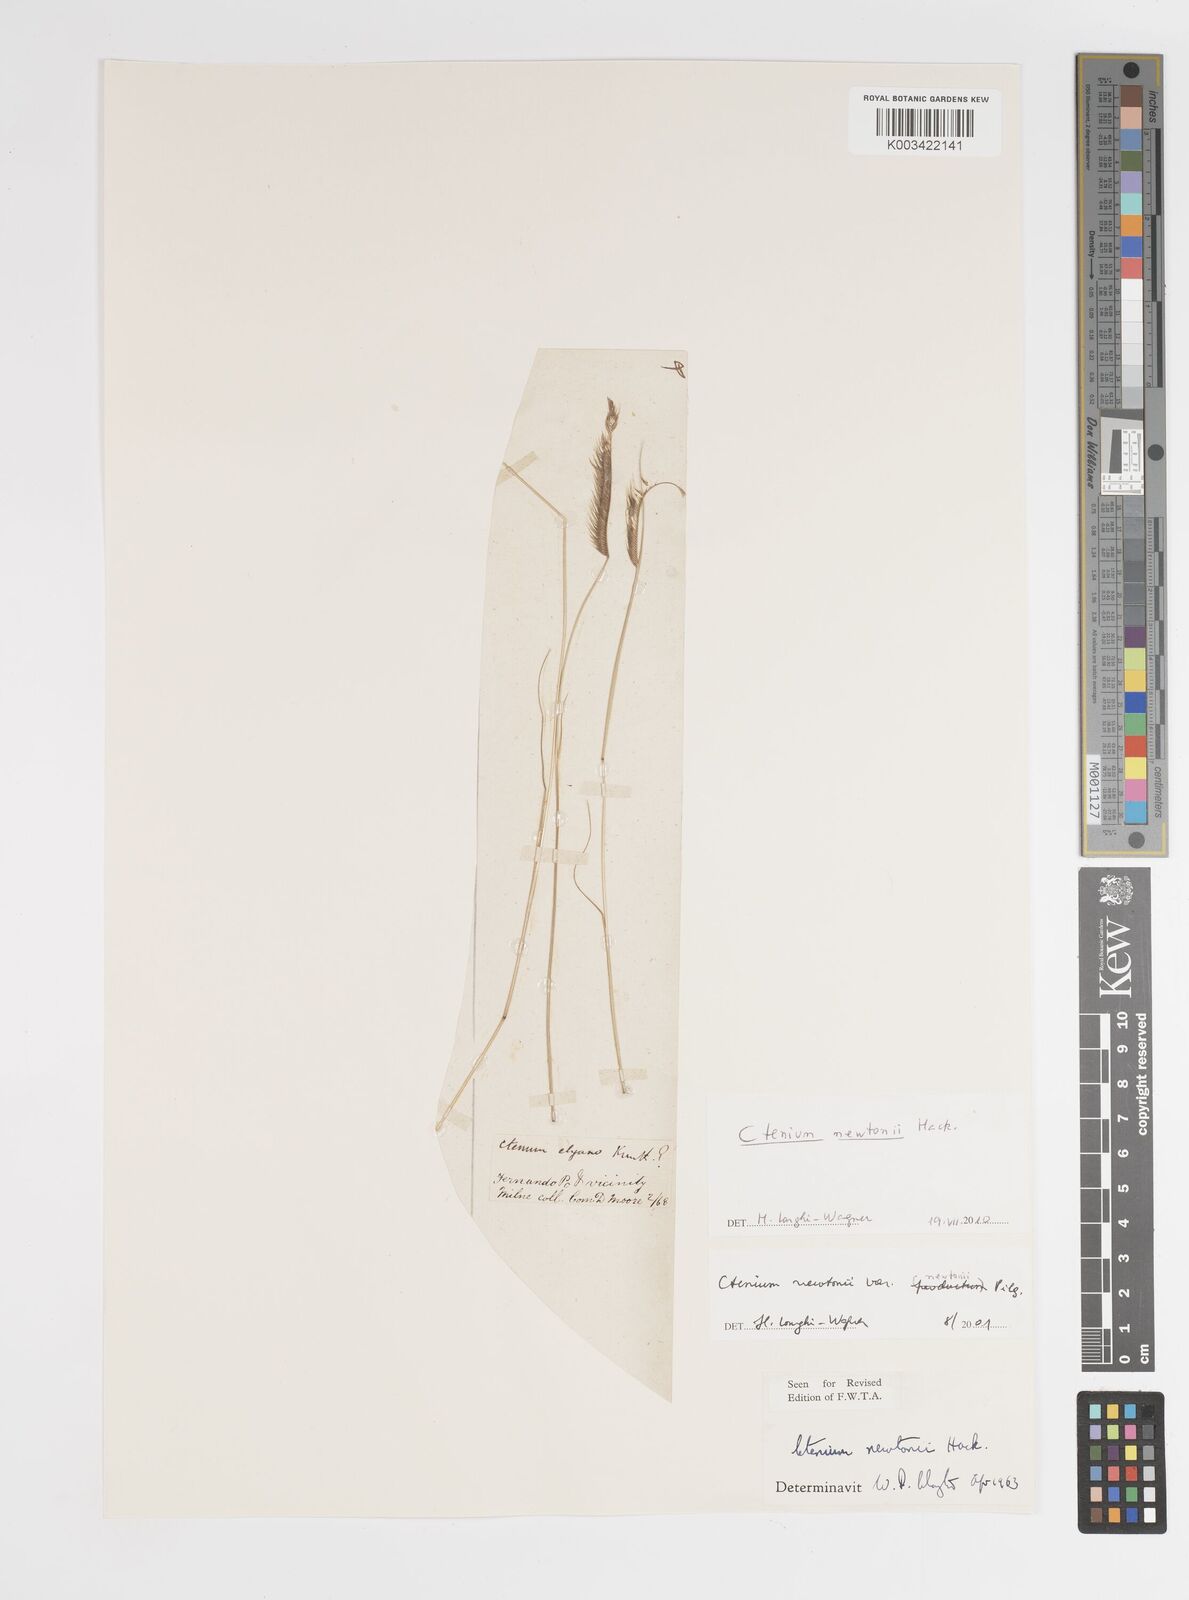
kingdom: Plantae
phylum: Tracheophyta
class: Liliopsida
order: Poales
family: Poaceae
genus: Ctenium
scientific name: Ctenium newtonii
